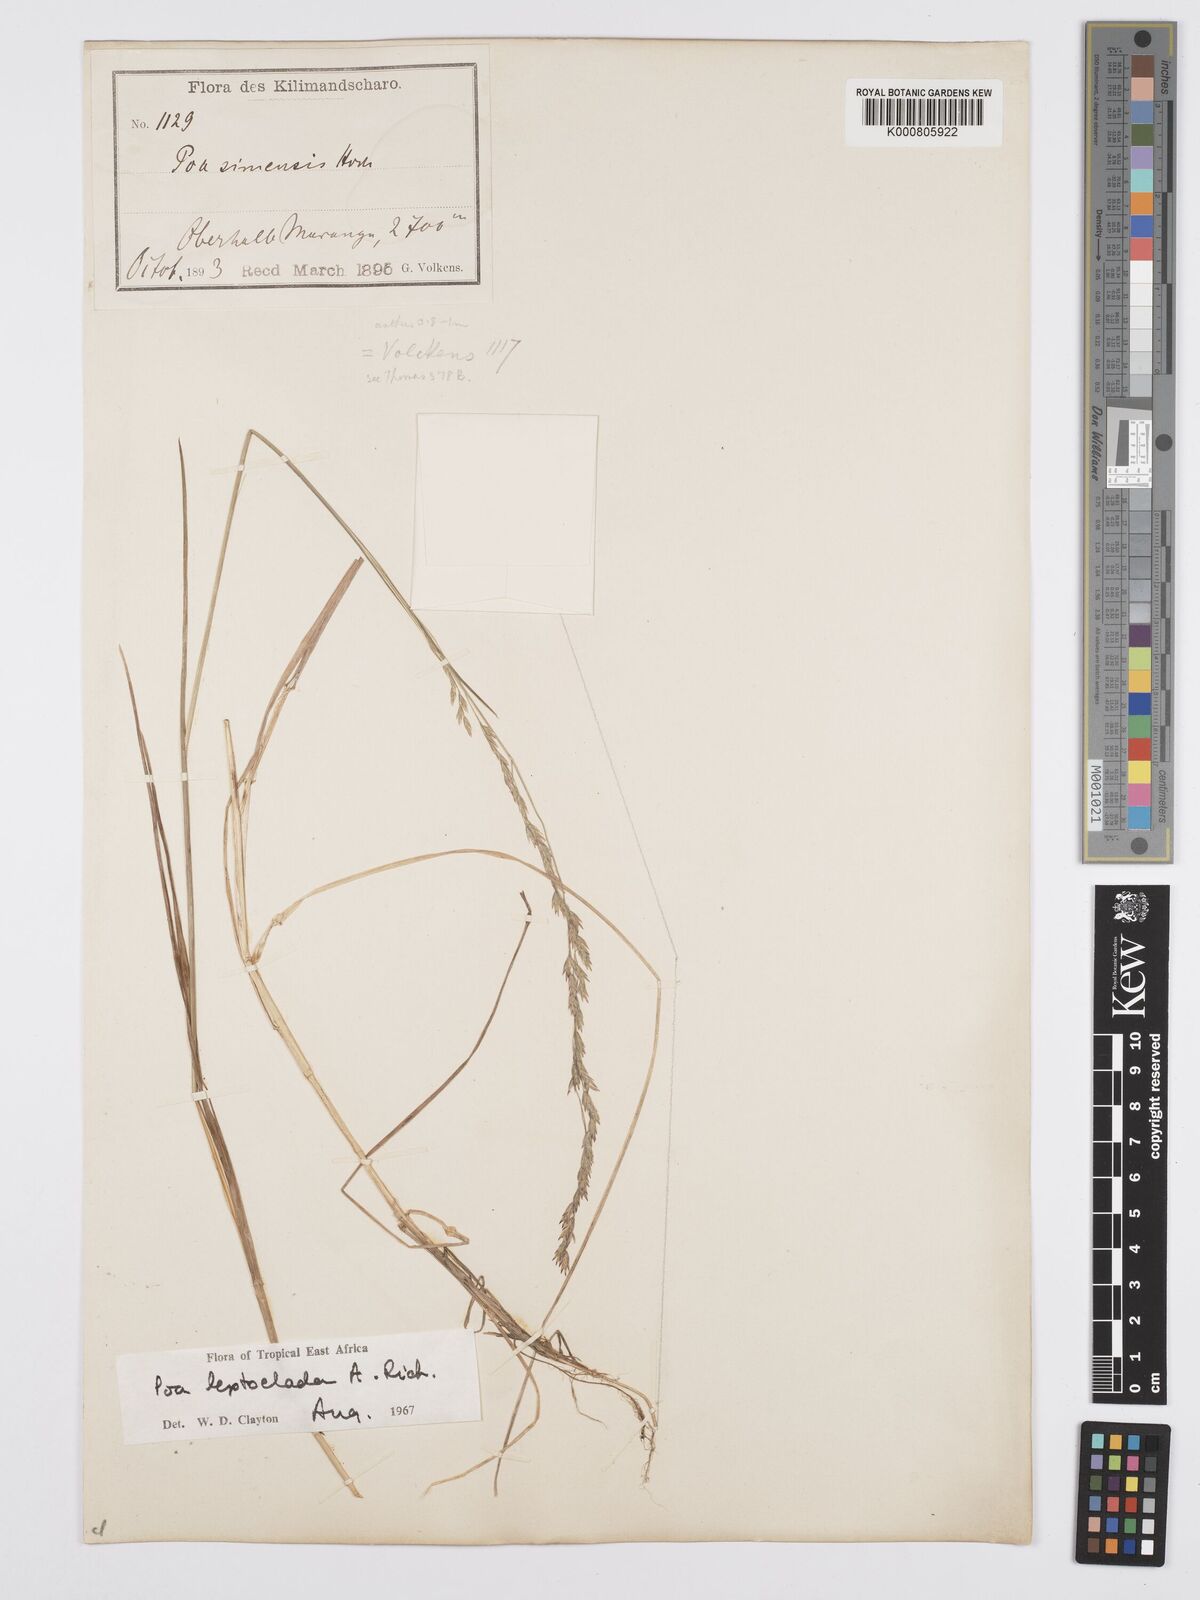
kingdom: Plantae
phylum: Tracheophyta
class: Liliopsida
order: Poales
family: Poaceae
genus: Poa
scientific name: Poa leptoclada
